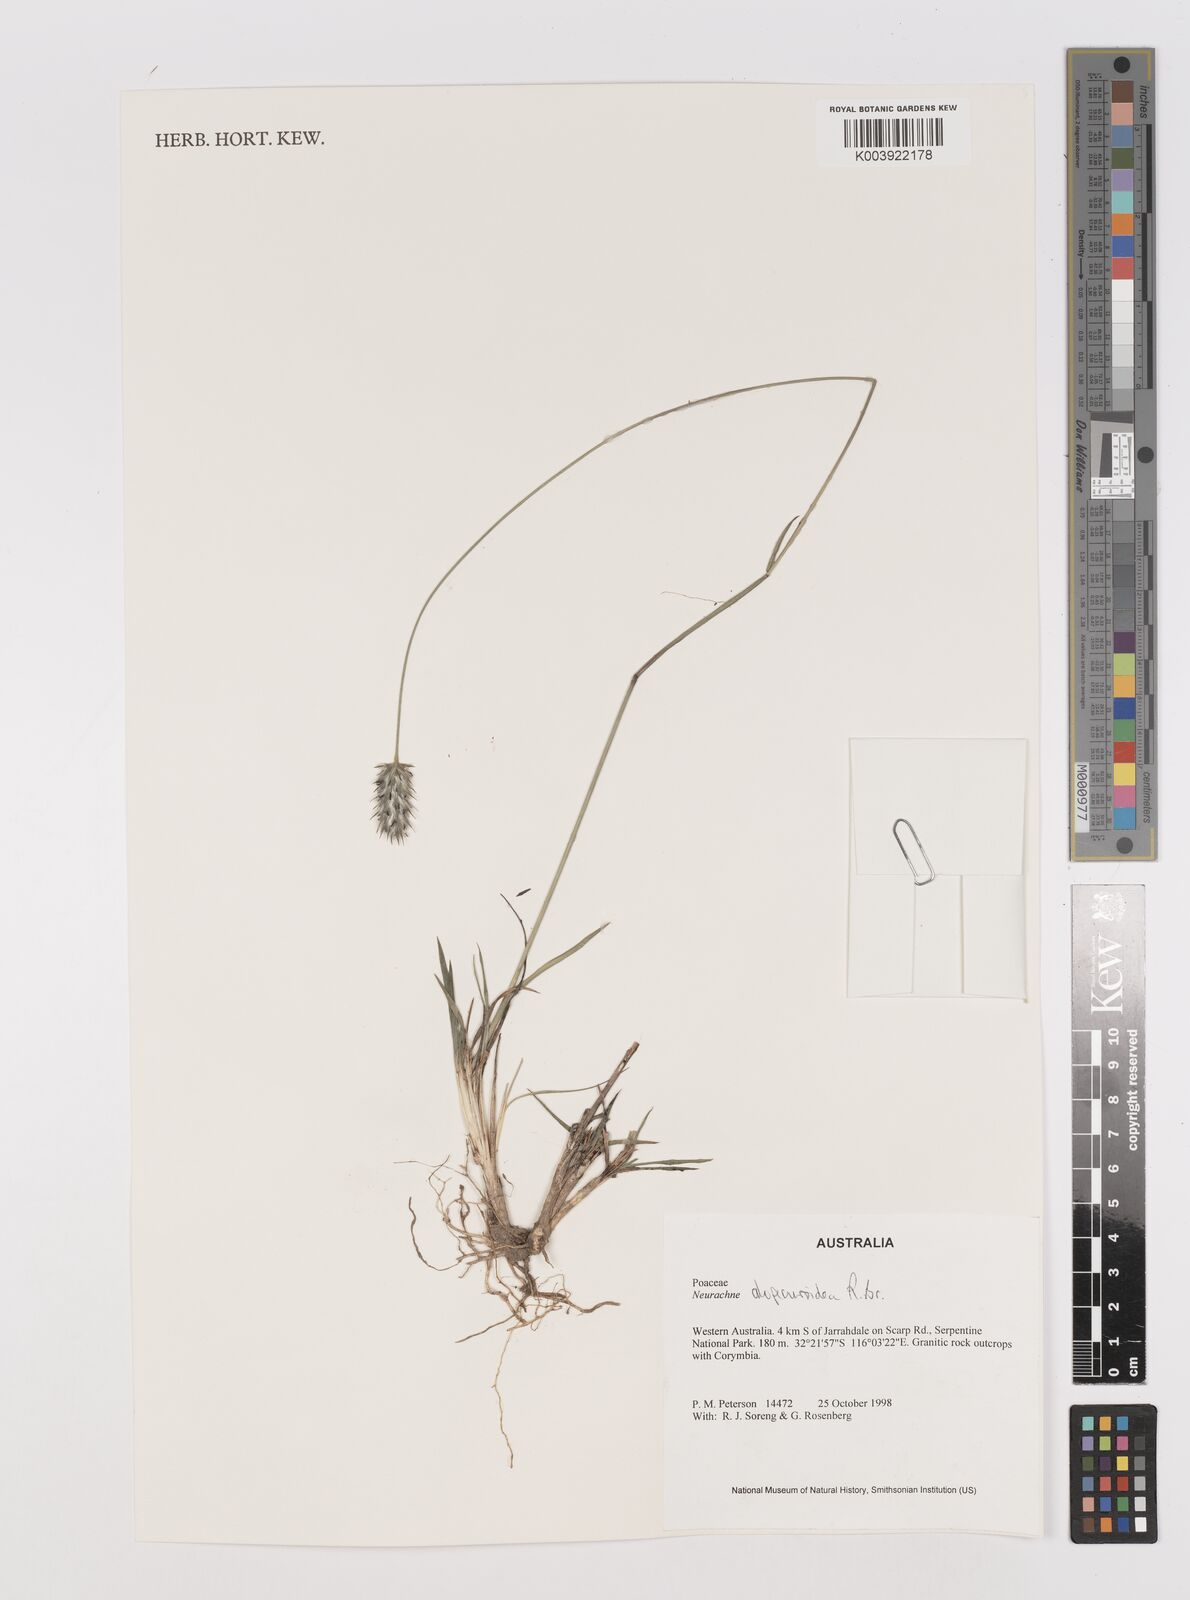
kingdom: Plantae
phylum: Tracheophyta
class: Liliopsida
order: Poales
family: Poaceae
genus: Neurachne
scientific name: Neurachne alopecuroidea
